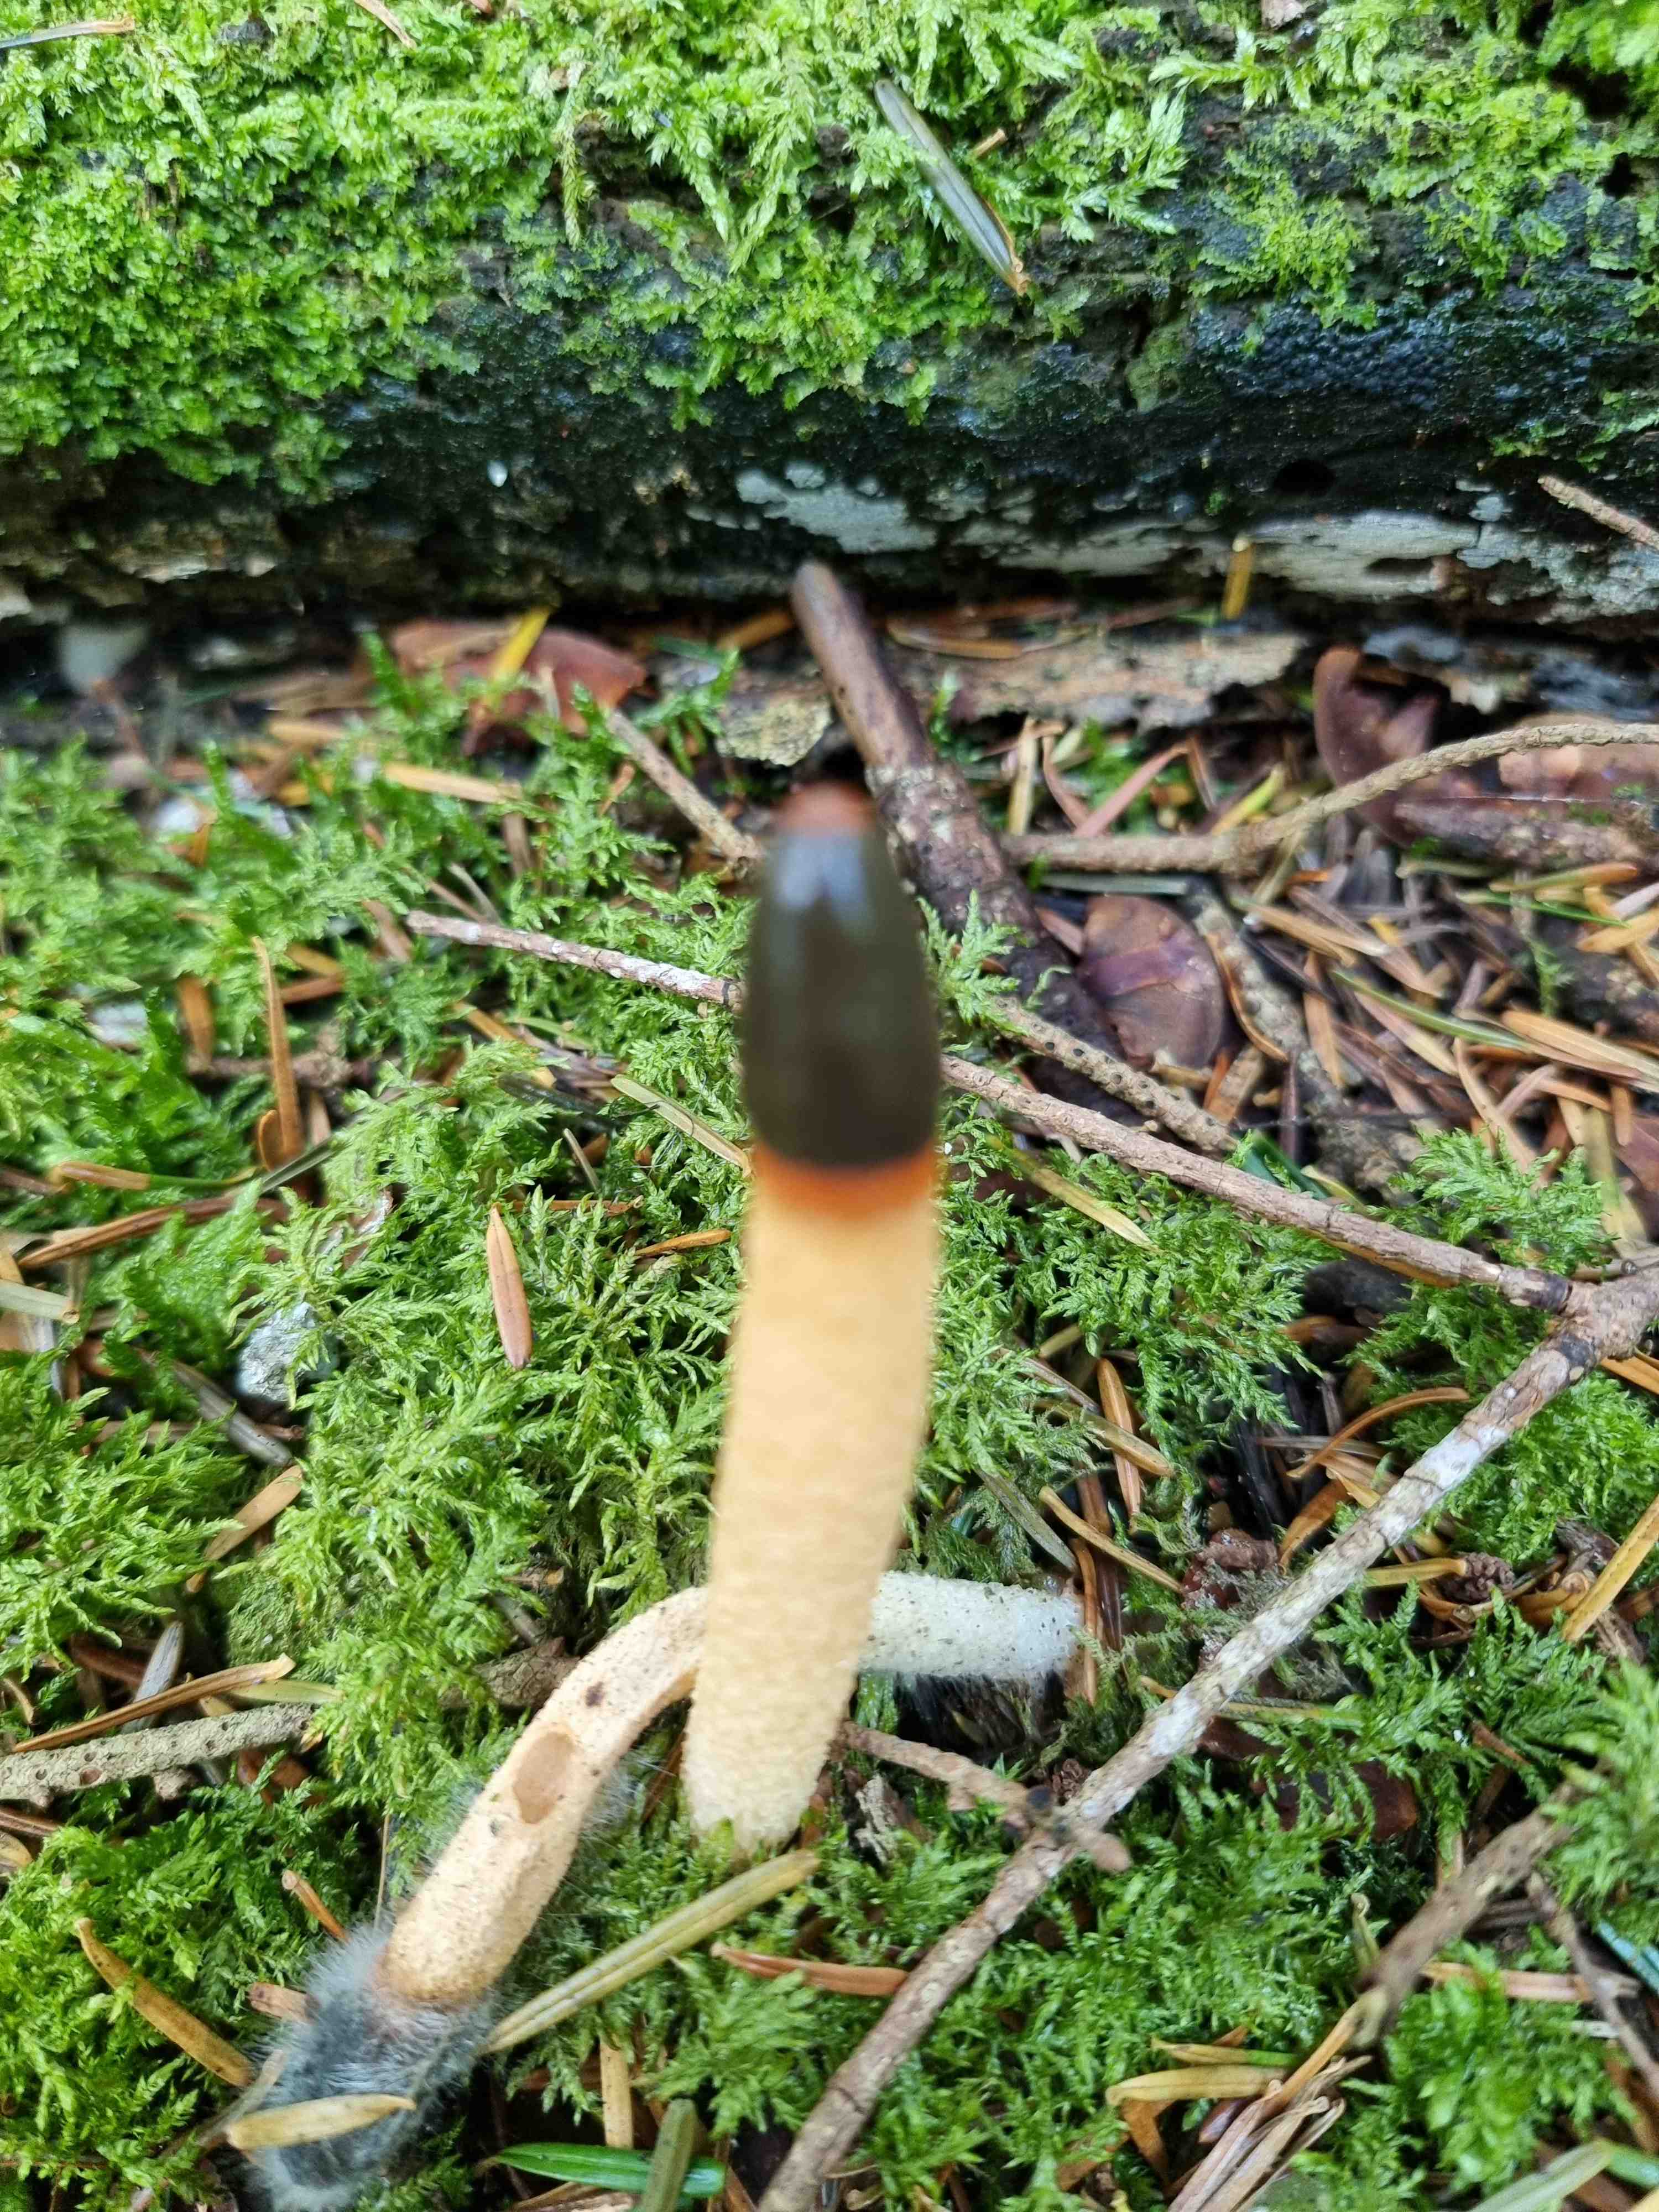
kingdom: Fungi
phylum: Basidiomycota
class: Agaricomycetes
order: Phallales
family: Phallaceae
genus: Mutinus
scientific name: Mutinus caninus
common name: hunde-stinksvamp
